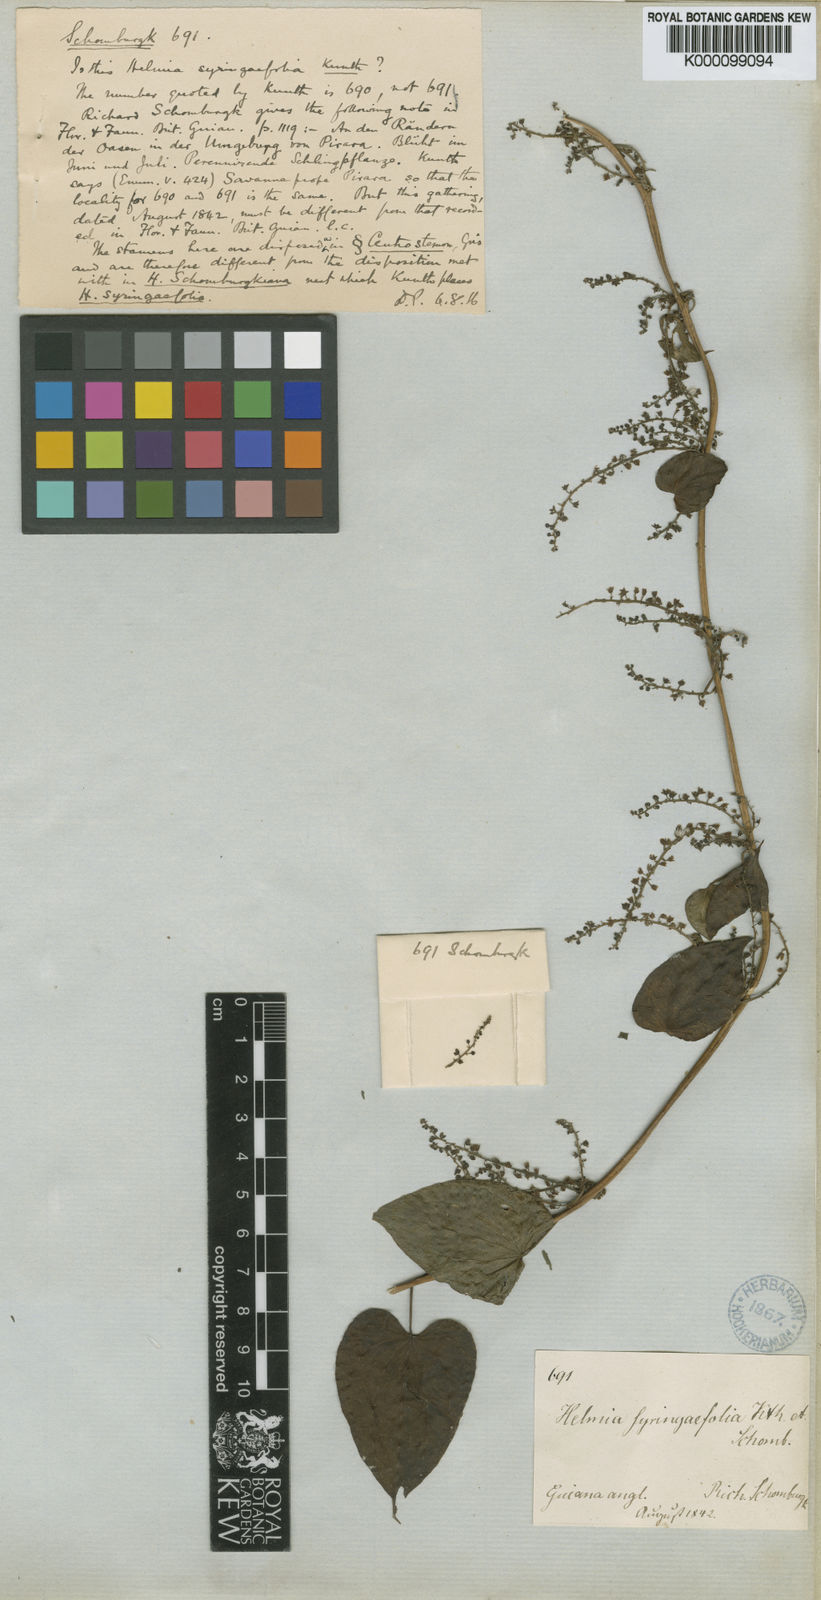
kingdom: Plantae
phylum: Tracheophyta
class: Liliopsida
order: Dioscoreales
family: Dioscoreaceae
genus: Dioscorea
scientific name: Dioscorea
